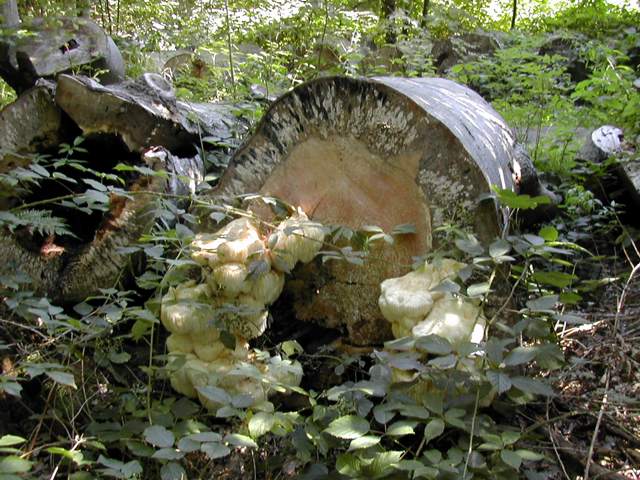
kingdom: Fungi
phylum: Basidiomycota
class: Agaricomycetes
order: Russulales
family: Hericiaceae
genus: Hericium
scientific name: Hericium erinaceus
